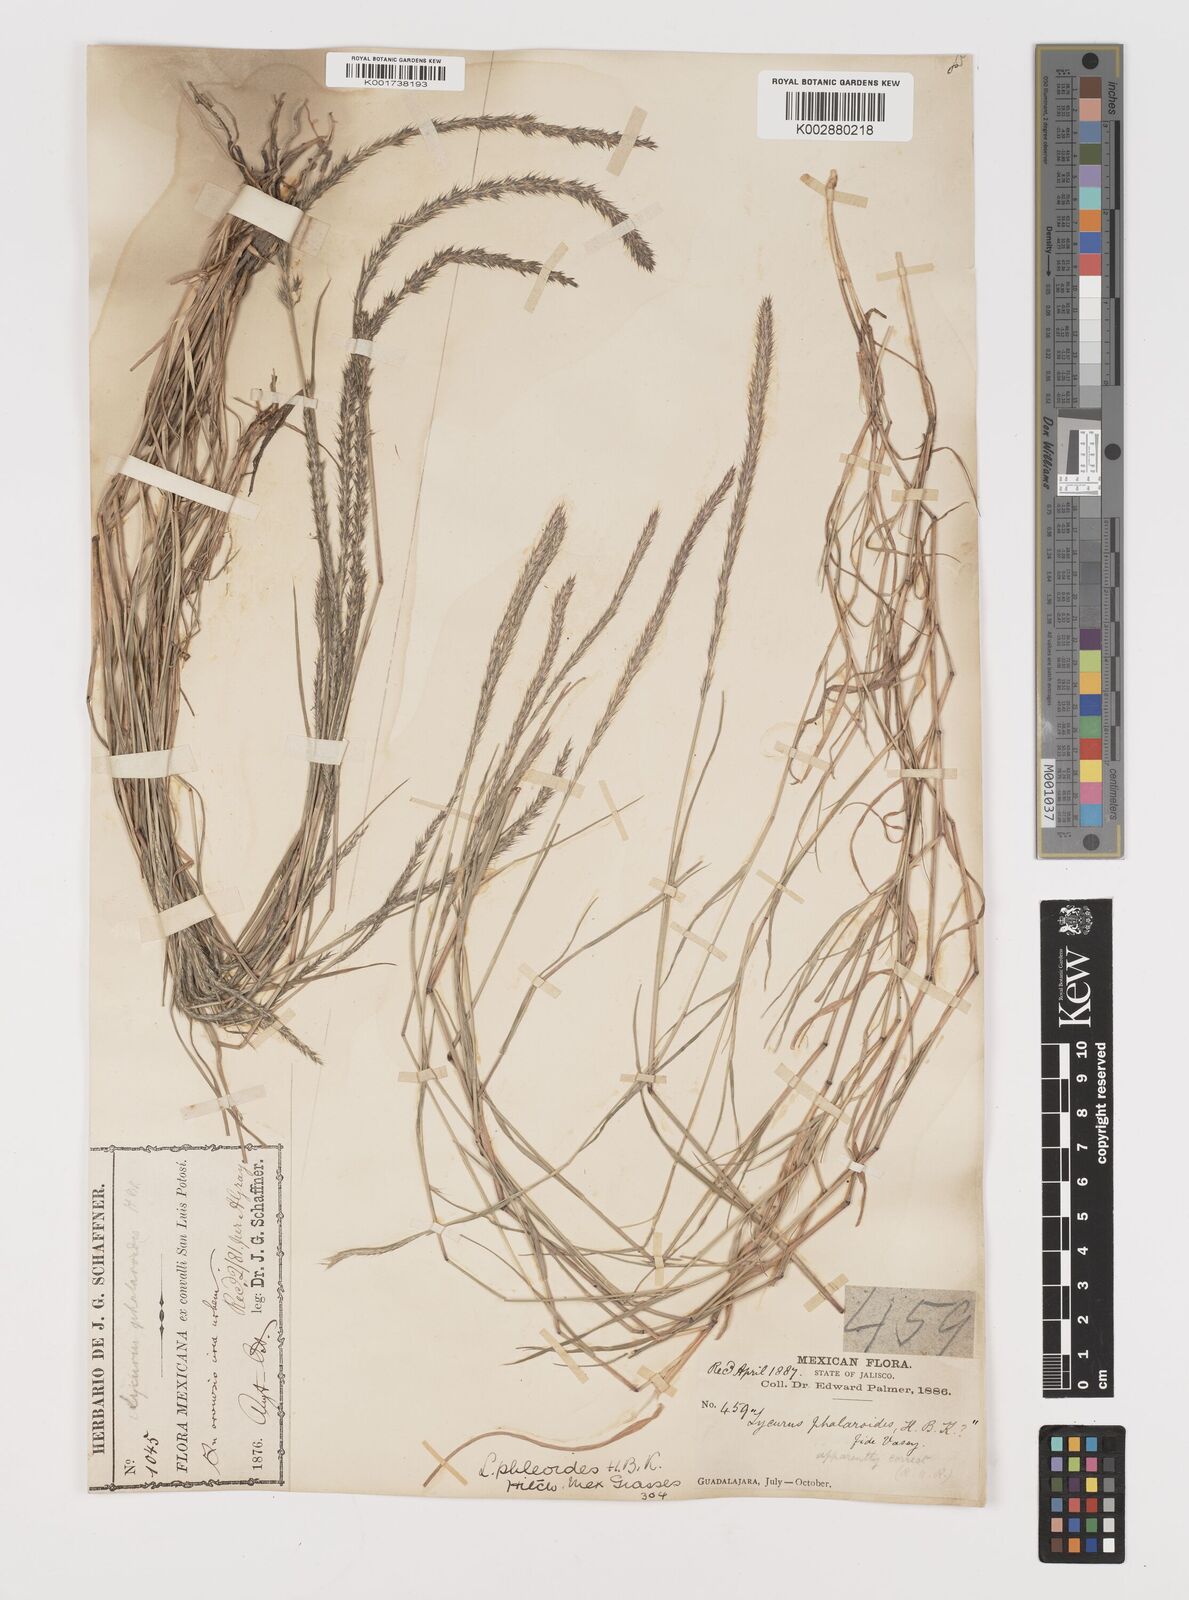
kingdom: Plantae
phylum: Tracheophyta
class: Liliopsida
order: Poales
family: Poaceae
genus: Muhlenbergia
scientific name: Muhlenbergia phleoides
